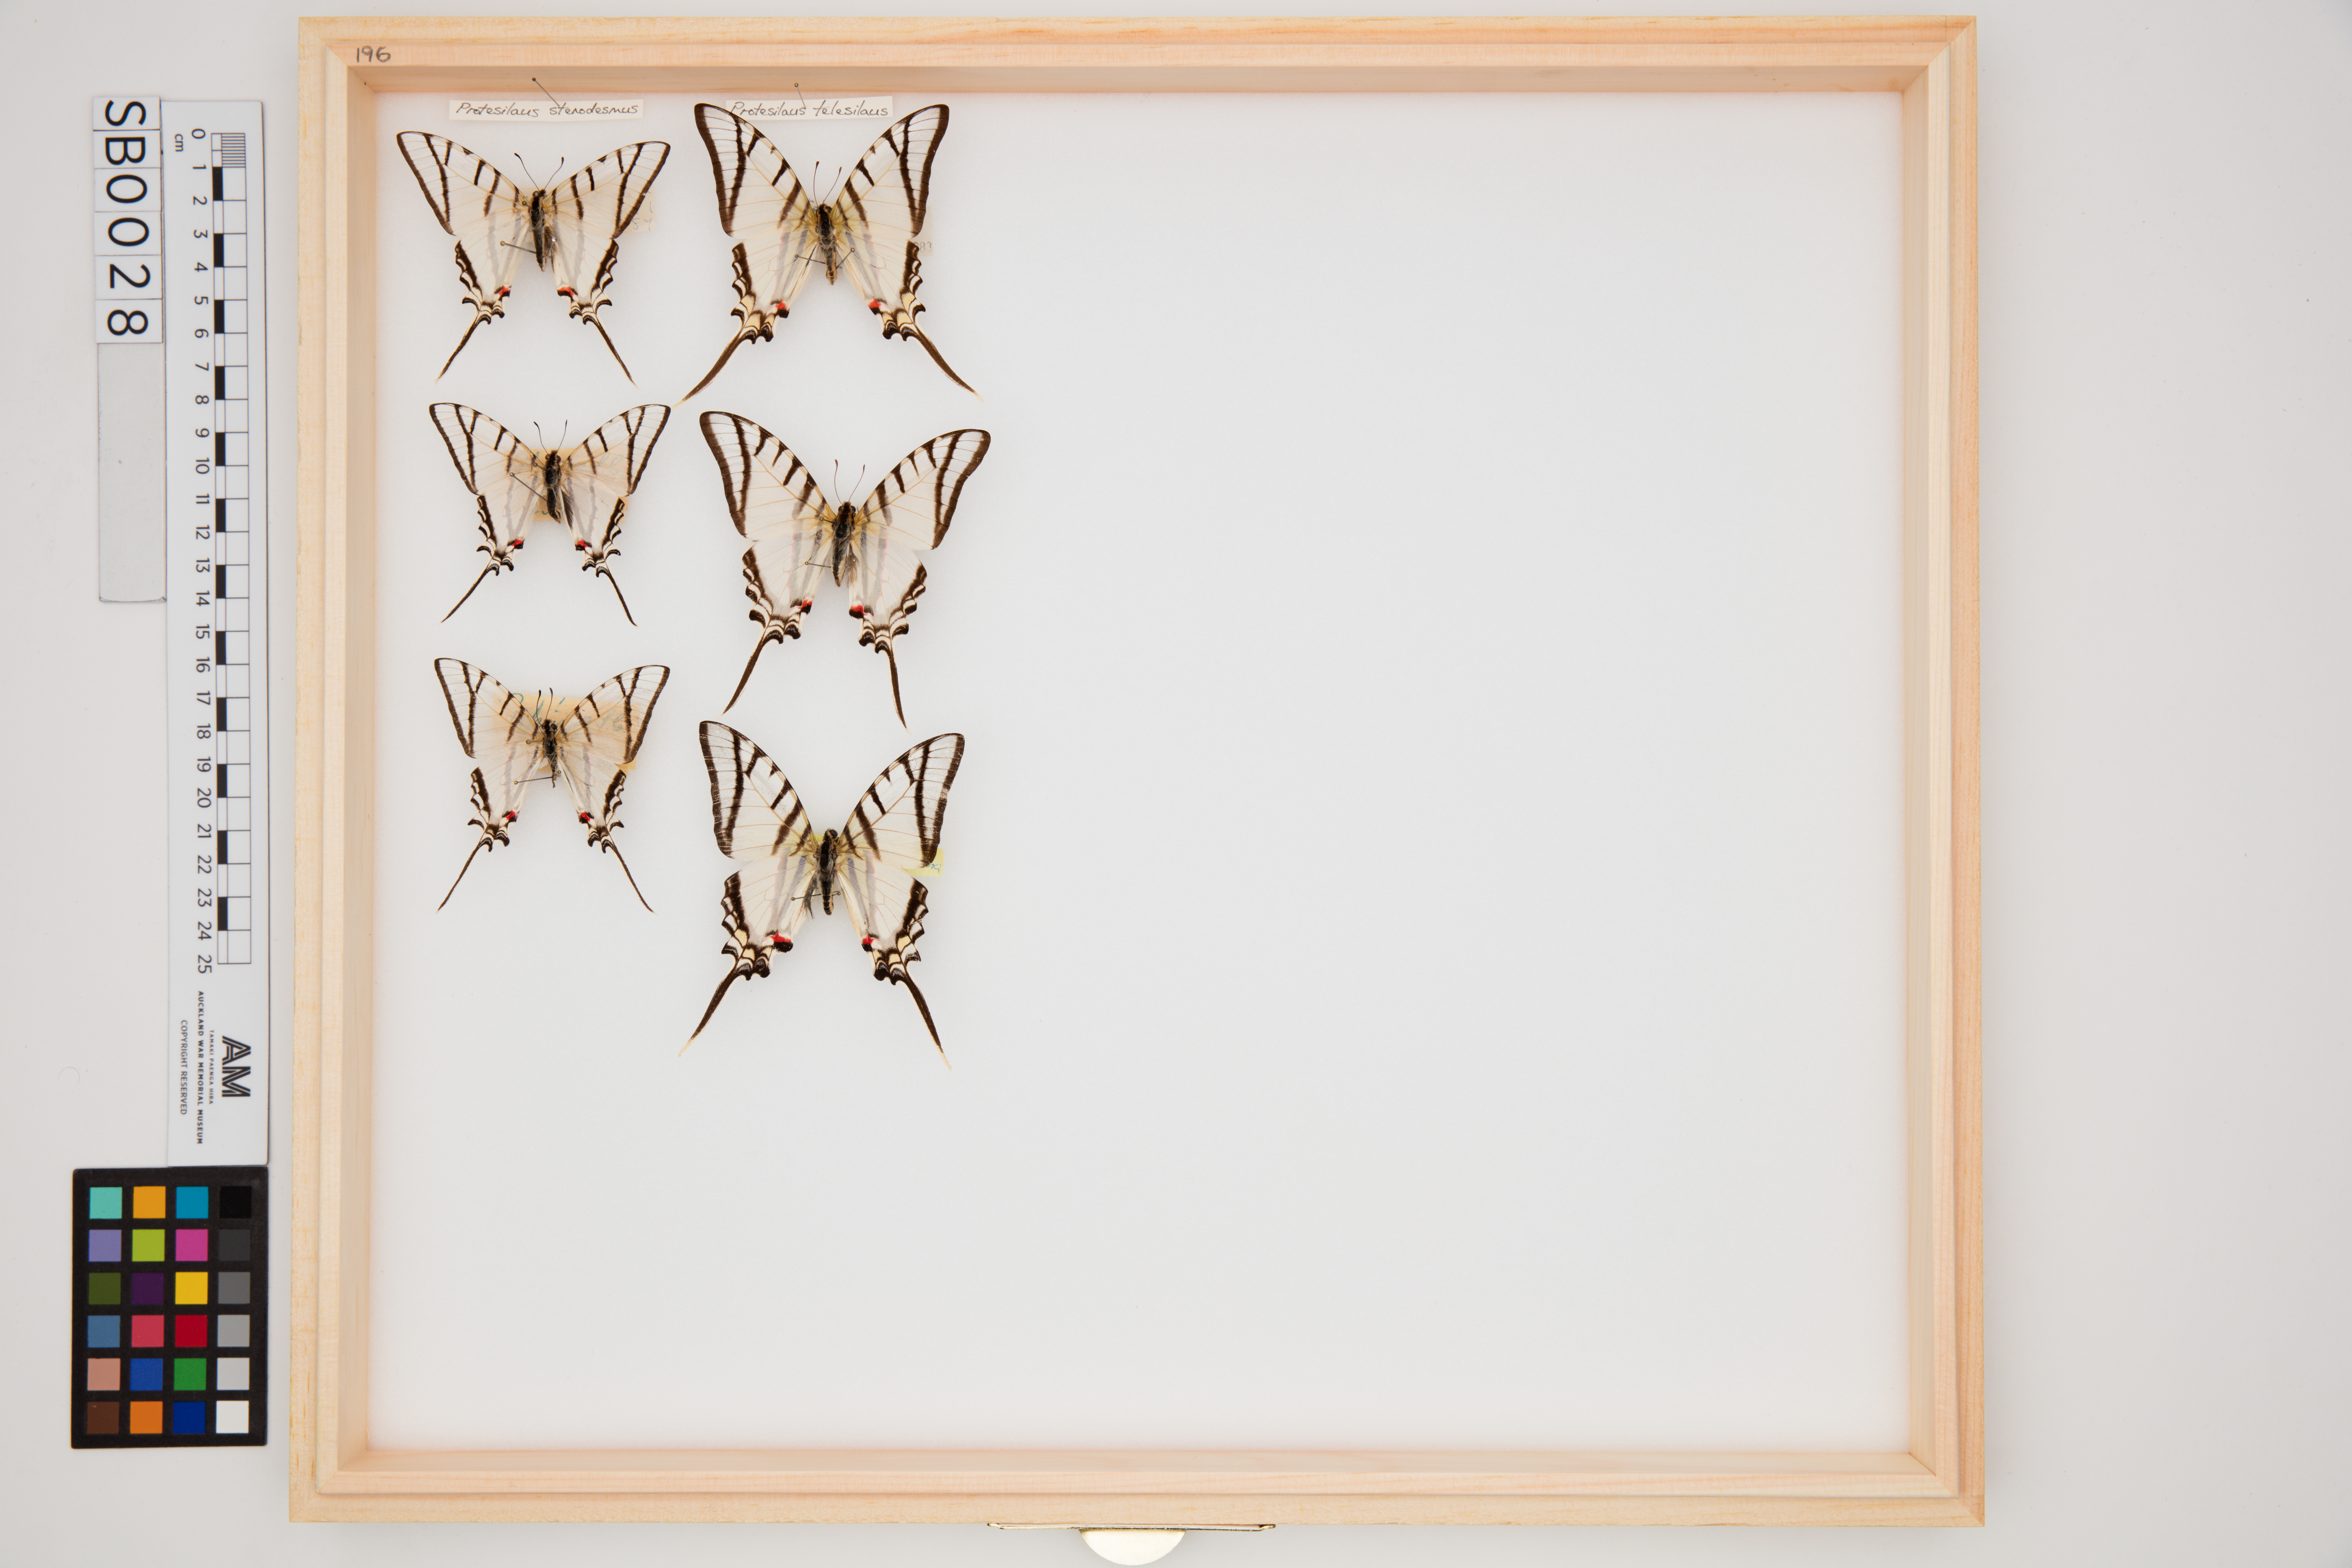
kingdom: Animalia
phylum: Arthropoda
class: Insecta
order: Lepidoptera
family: Papilionidae
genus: Protesilaus
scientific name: Protesilaus stenodesmus
